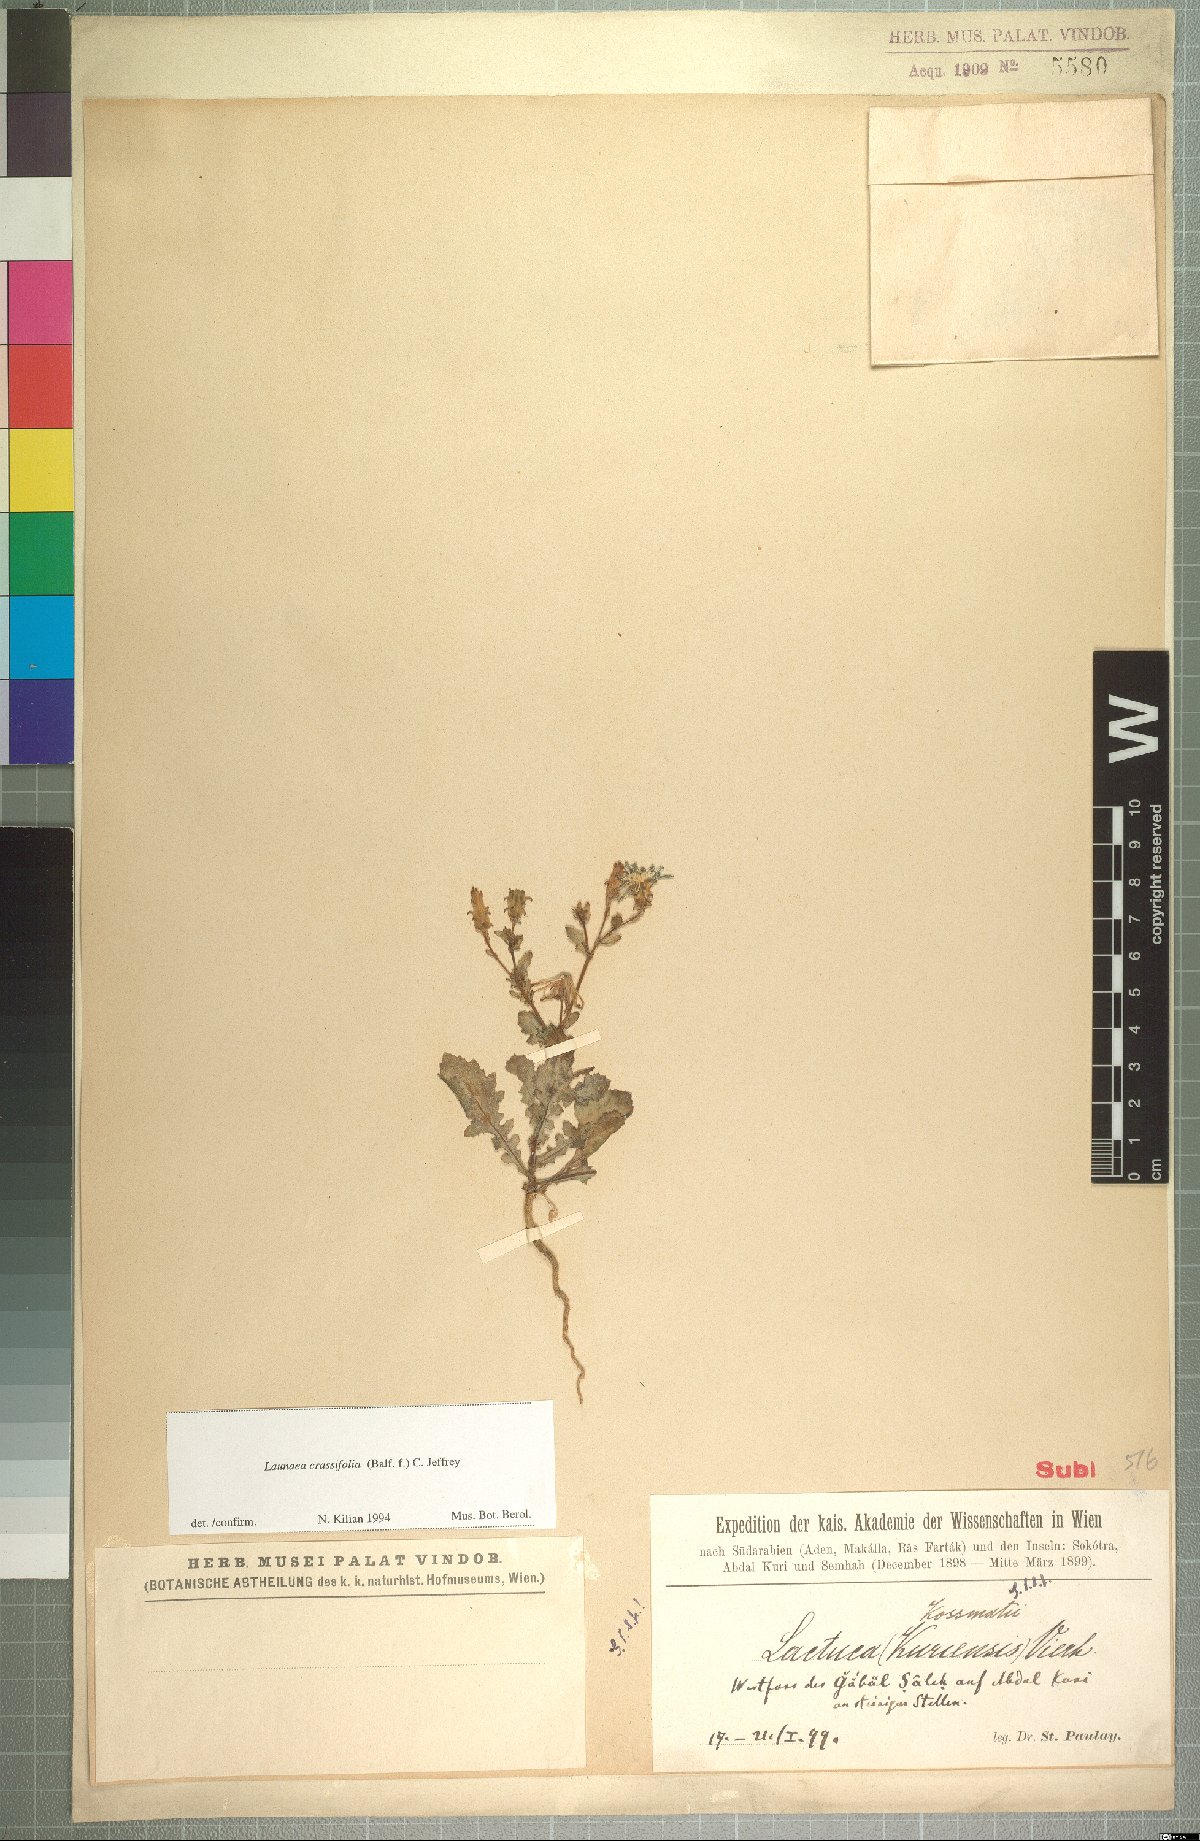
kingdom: Plantae
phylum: Tracheophyta
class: Magnoliopsida
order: Asterales
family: Asteraceae
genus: Launaea
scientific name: Launaea crassifolia
